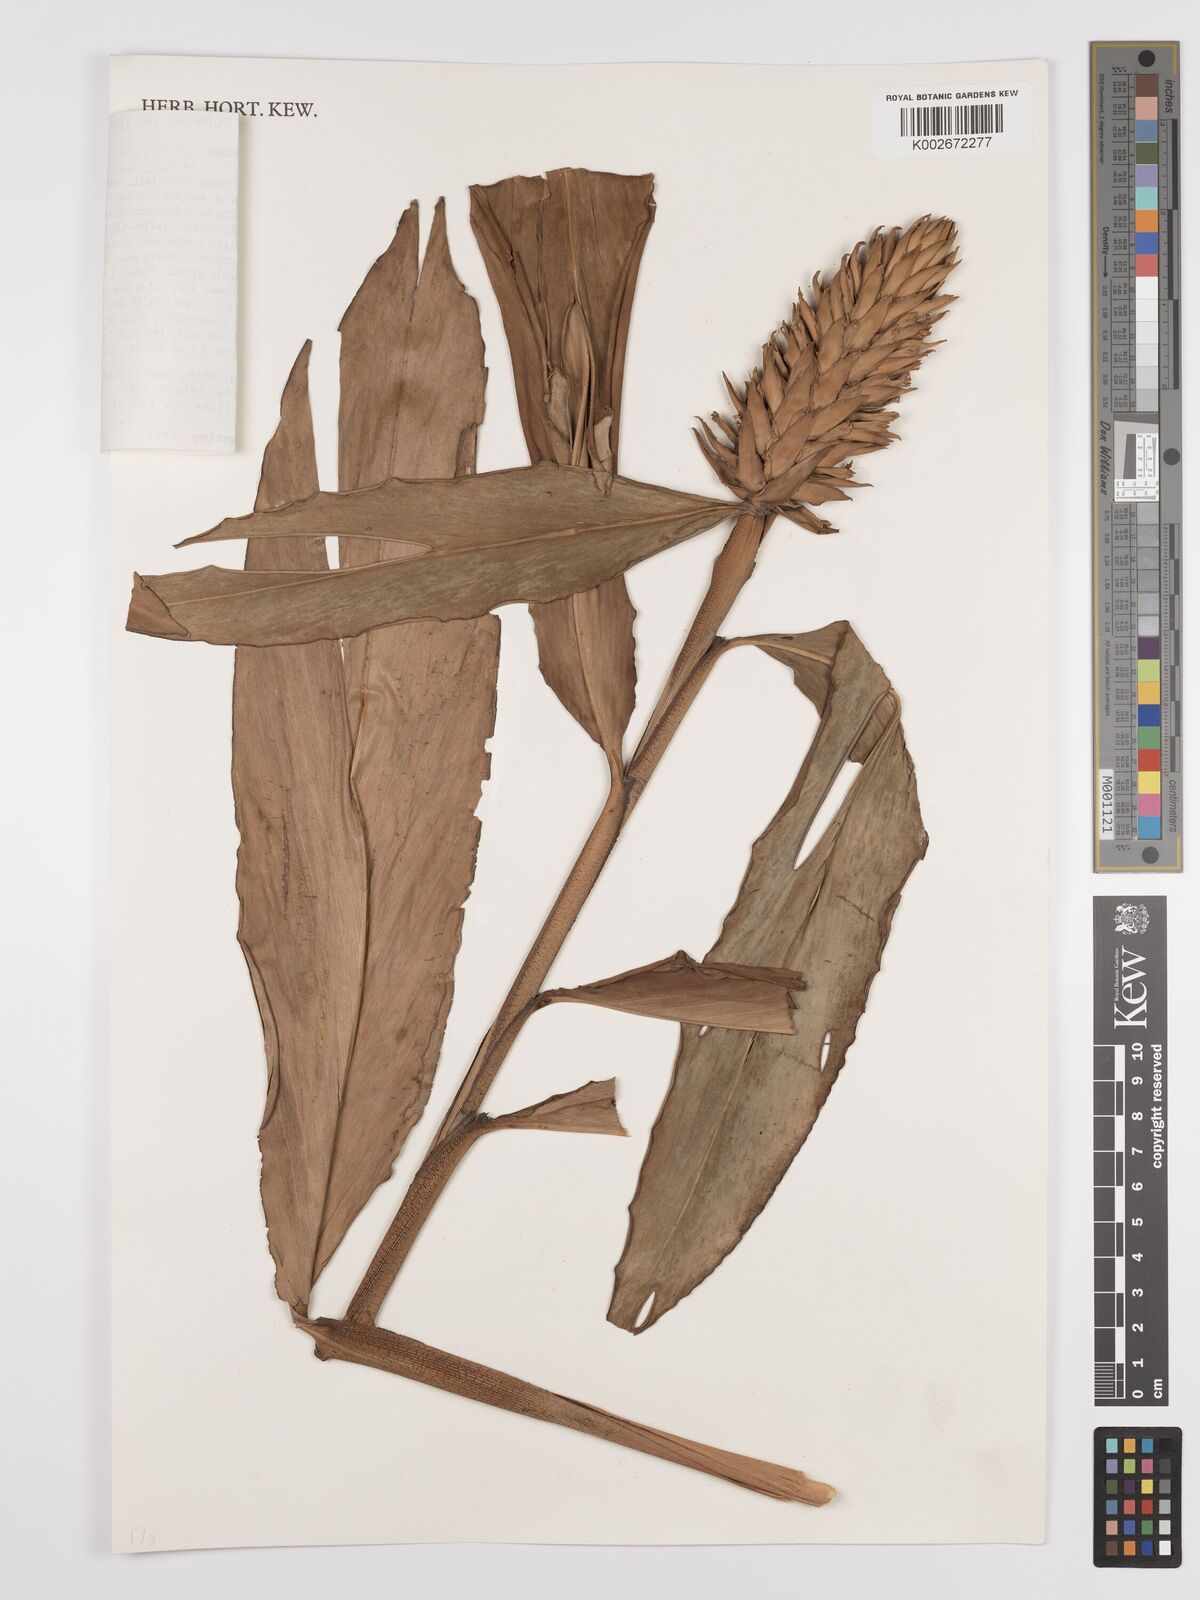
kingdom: Plantae
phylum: Tracheophyta
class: Liliopsida
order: Zingiberales
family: Zingiberaceae
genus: Renealmia
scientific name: Renealmia cernua
